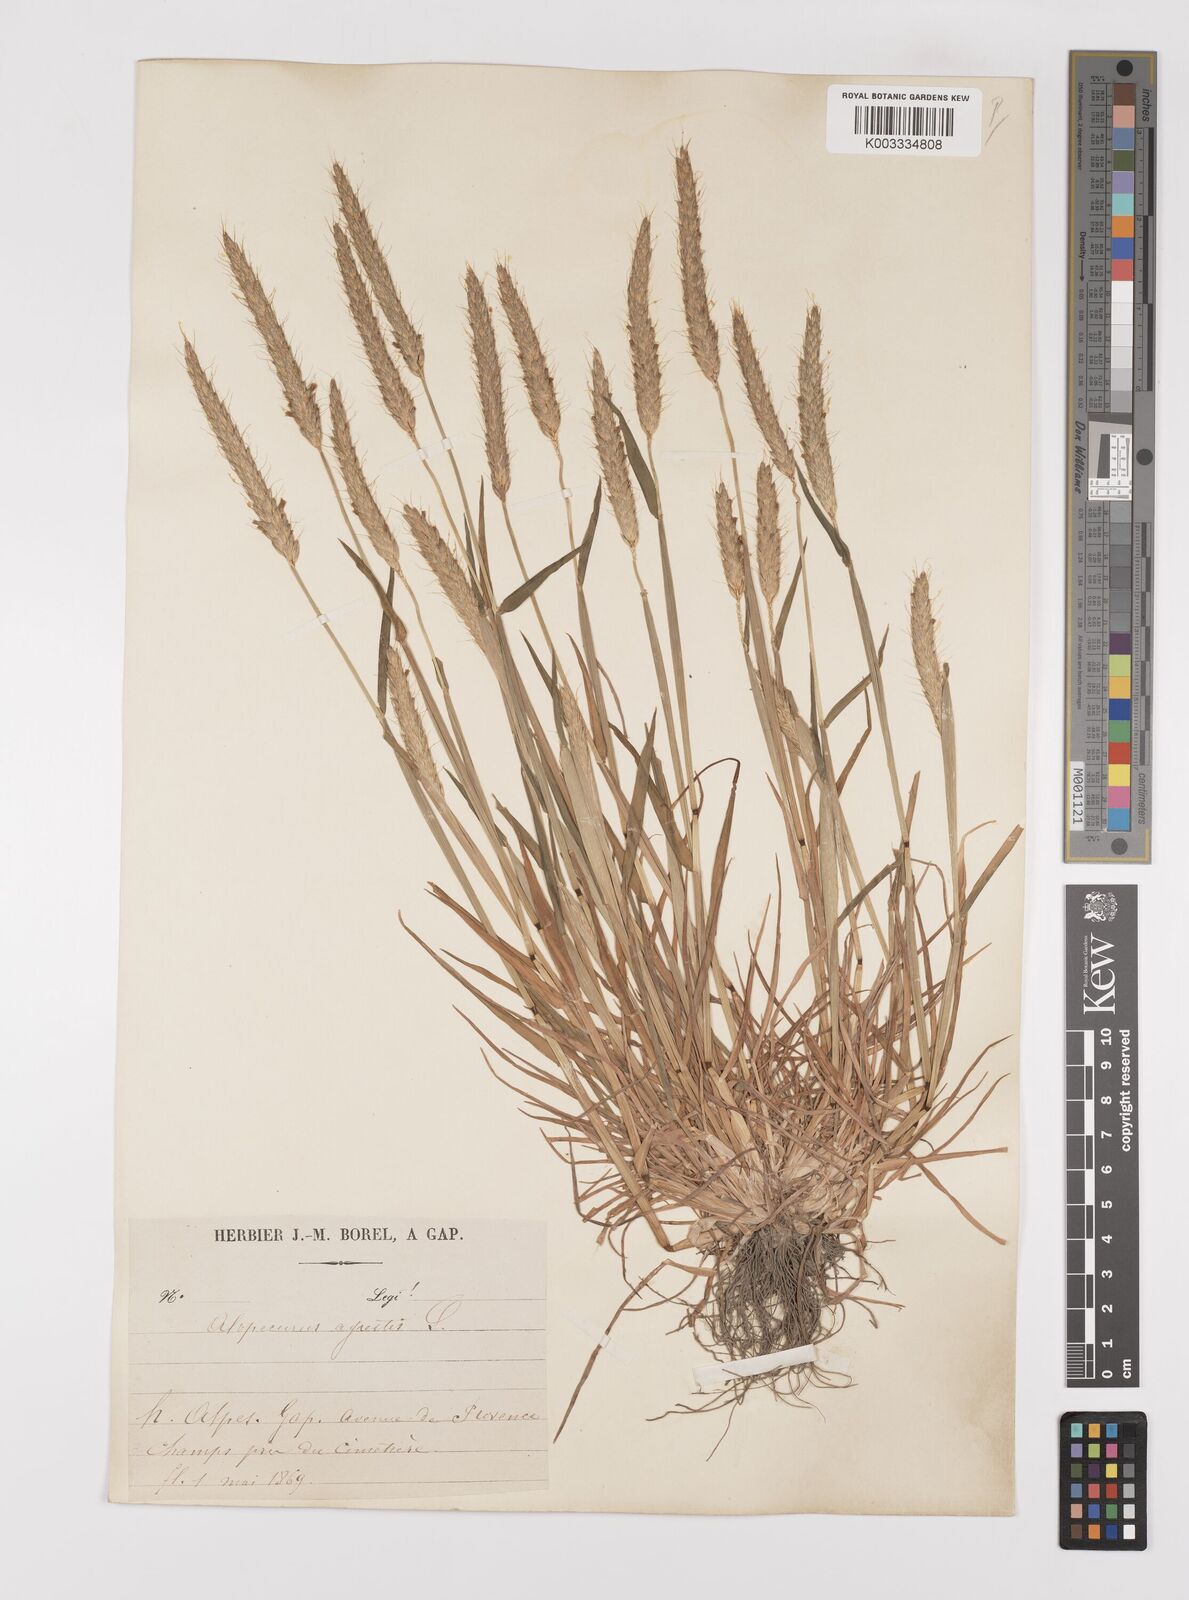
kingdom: Plantae
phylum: Tracheophyta
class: Liliopsida
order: Poales
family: Poaceae
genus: Alopecurus
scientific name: Alopecurus myosuroides
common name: Black-grass
